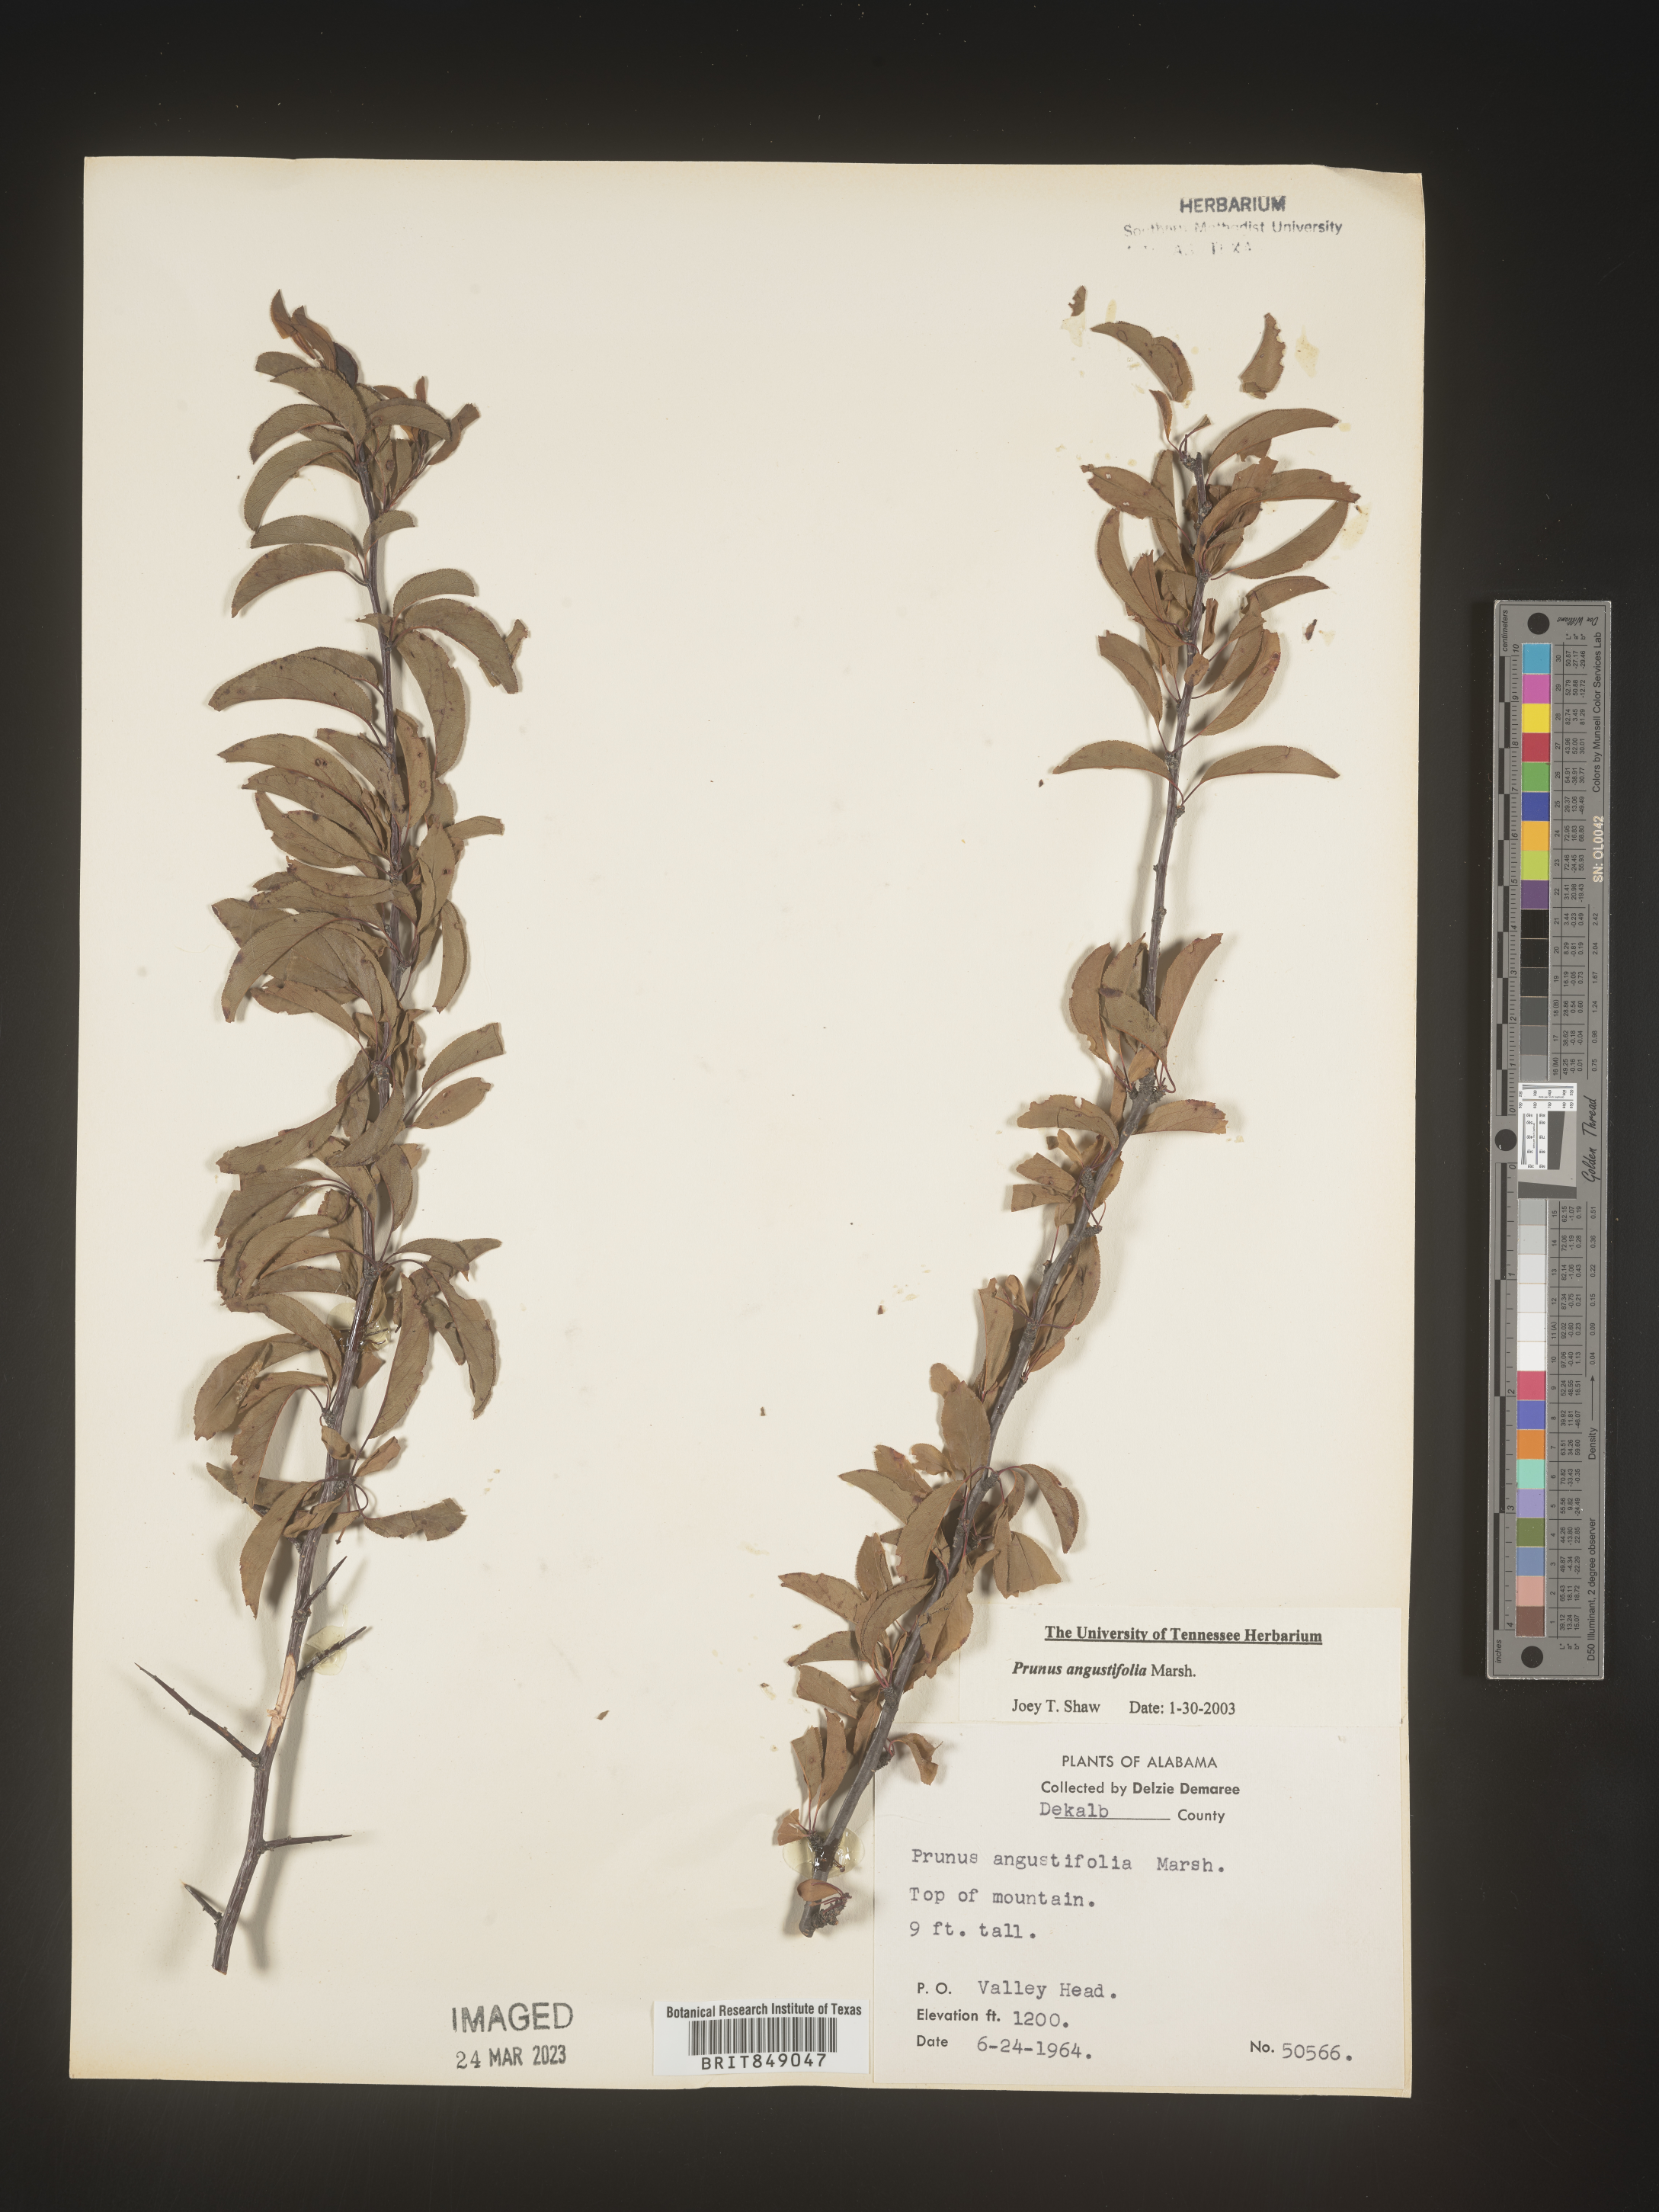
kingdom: Plantae
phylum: Tracheophyta
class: Magnoliopsida
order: Rosales
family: Rosaceae
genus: Prunus
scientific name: Prunus angustifolia
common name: Cherokee plum
